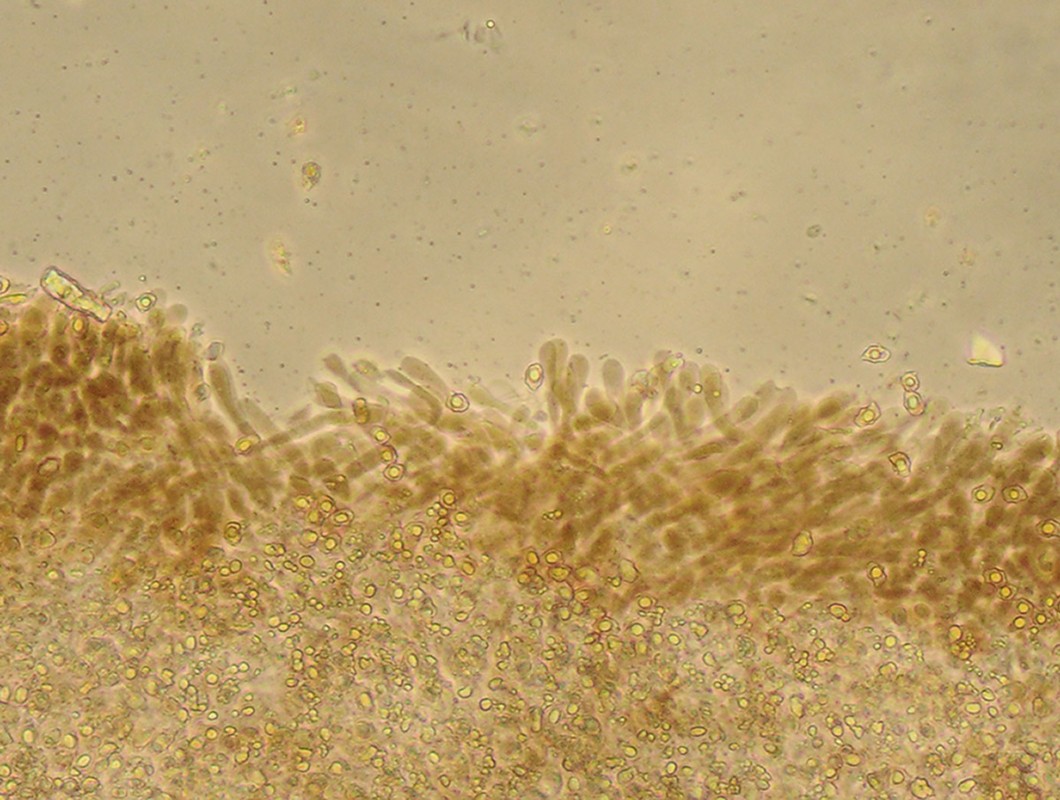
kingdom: Fungi
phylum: Basidiomycota
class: Agaricomycetes
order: Agaricales
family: Entolomataceae
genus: Entoloma
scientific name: Entoloma riparium
